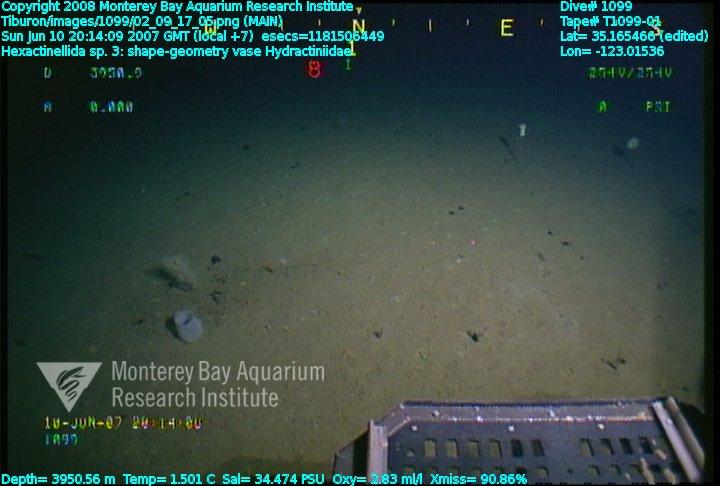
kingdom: Animalia
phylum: Porifera
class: Hexactinellida
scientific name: Hexactinellida
